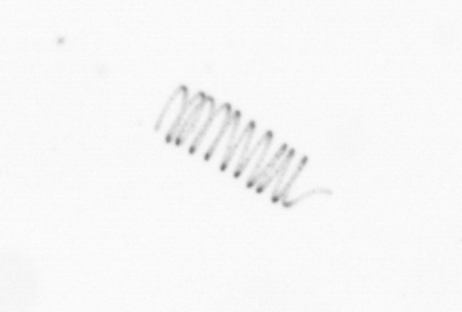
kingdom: Chromista
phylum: Ochrophyta
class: Bacillariophyceae
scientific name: Bacillariophyceae
